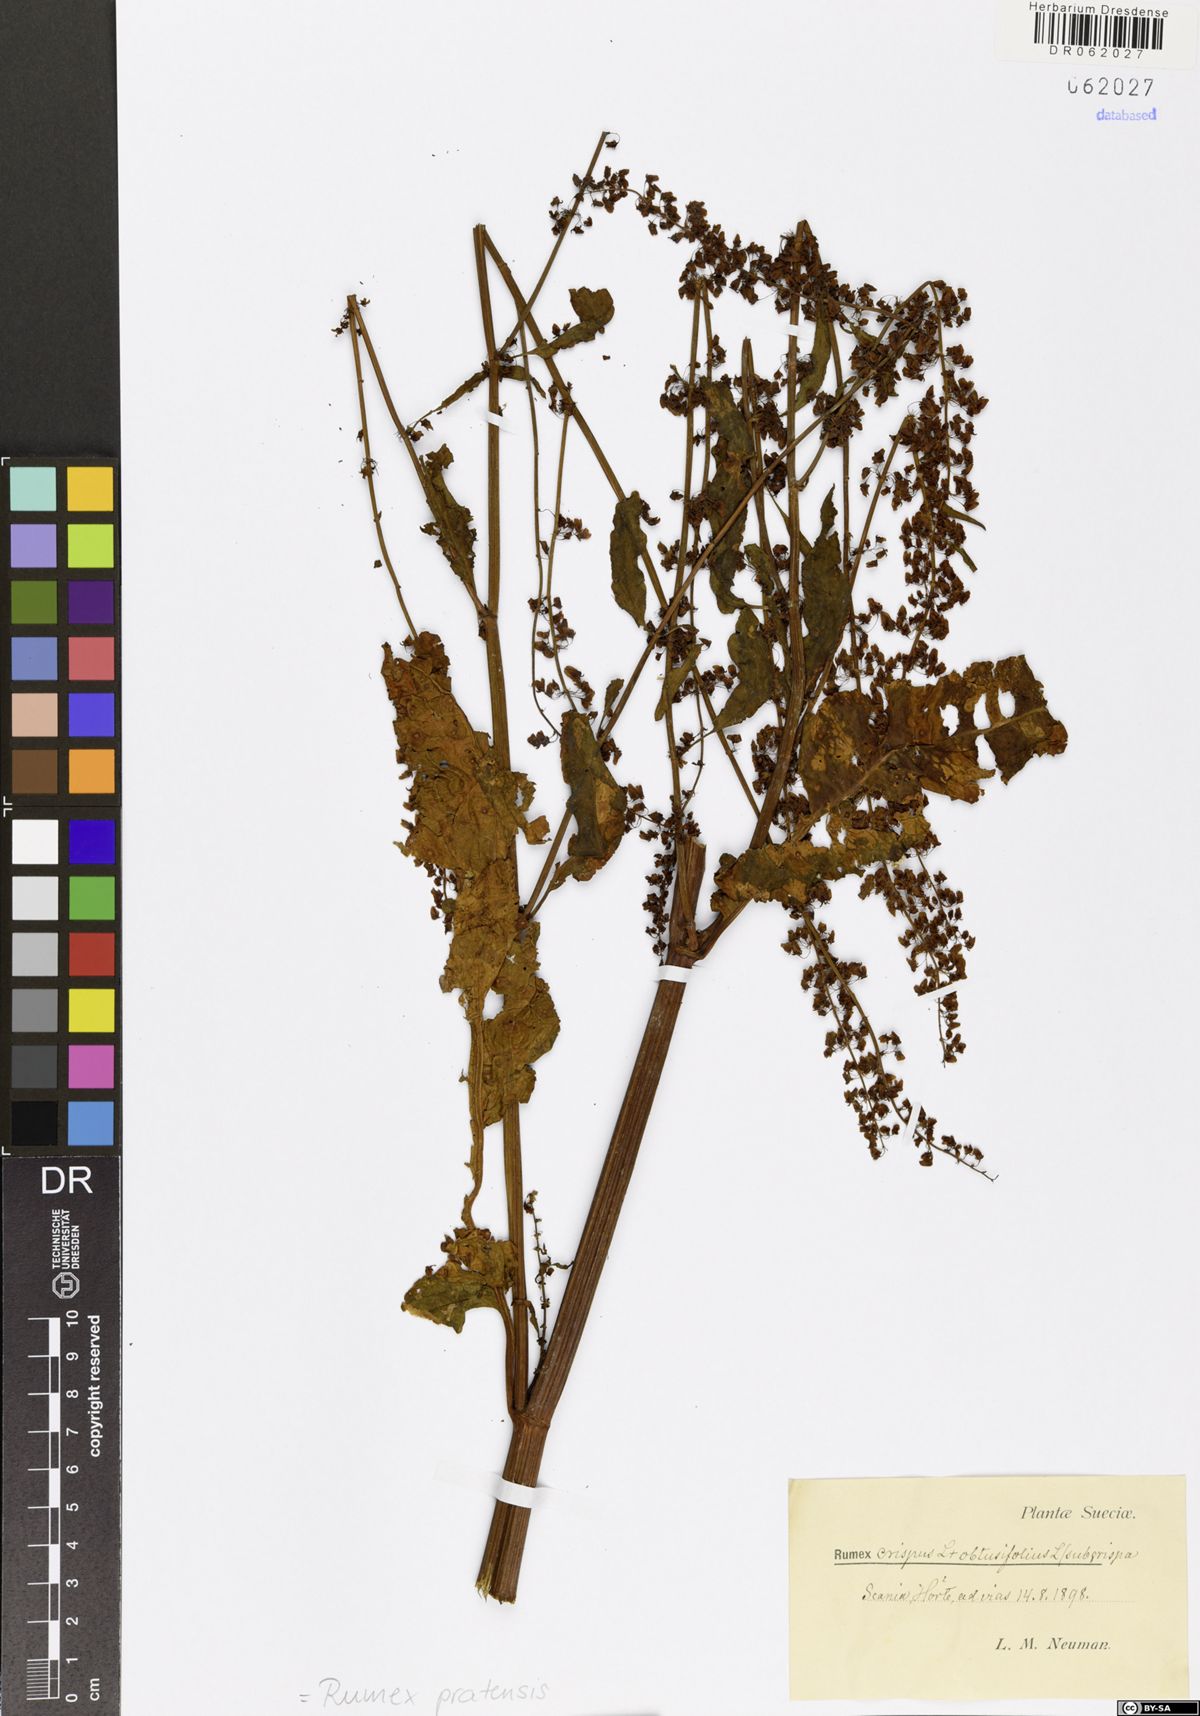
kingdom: Plantae
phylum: Tracheophyta
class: Magnoliopsida
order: Caryophyllales
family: Polygonaceae
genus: Rumex
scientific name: Rumex pratensis
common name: Knotweed
